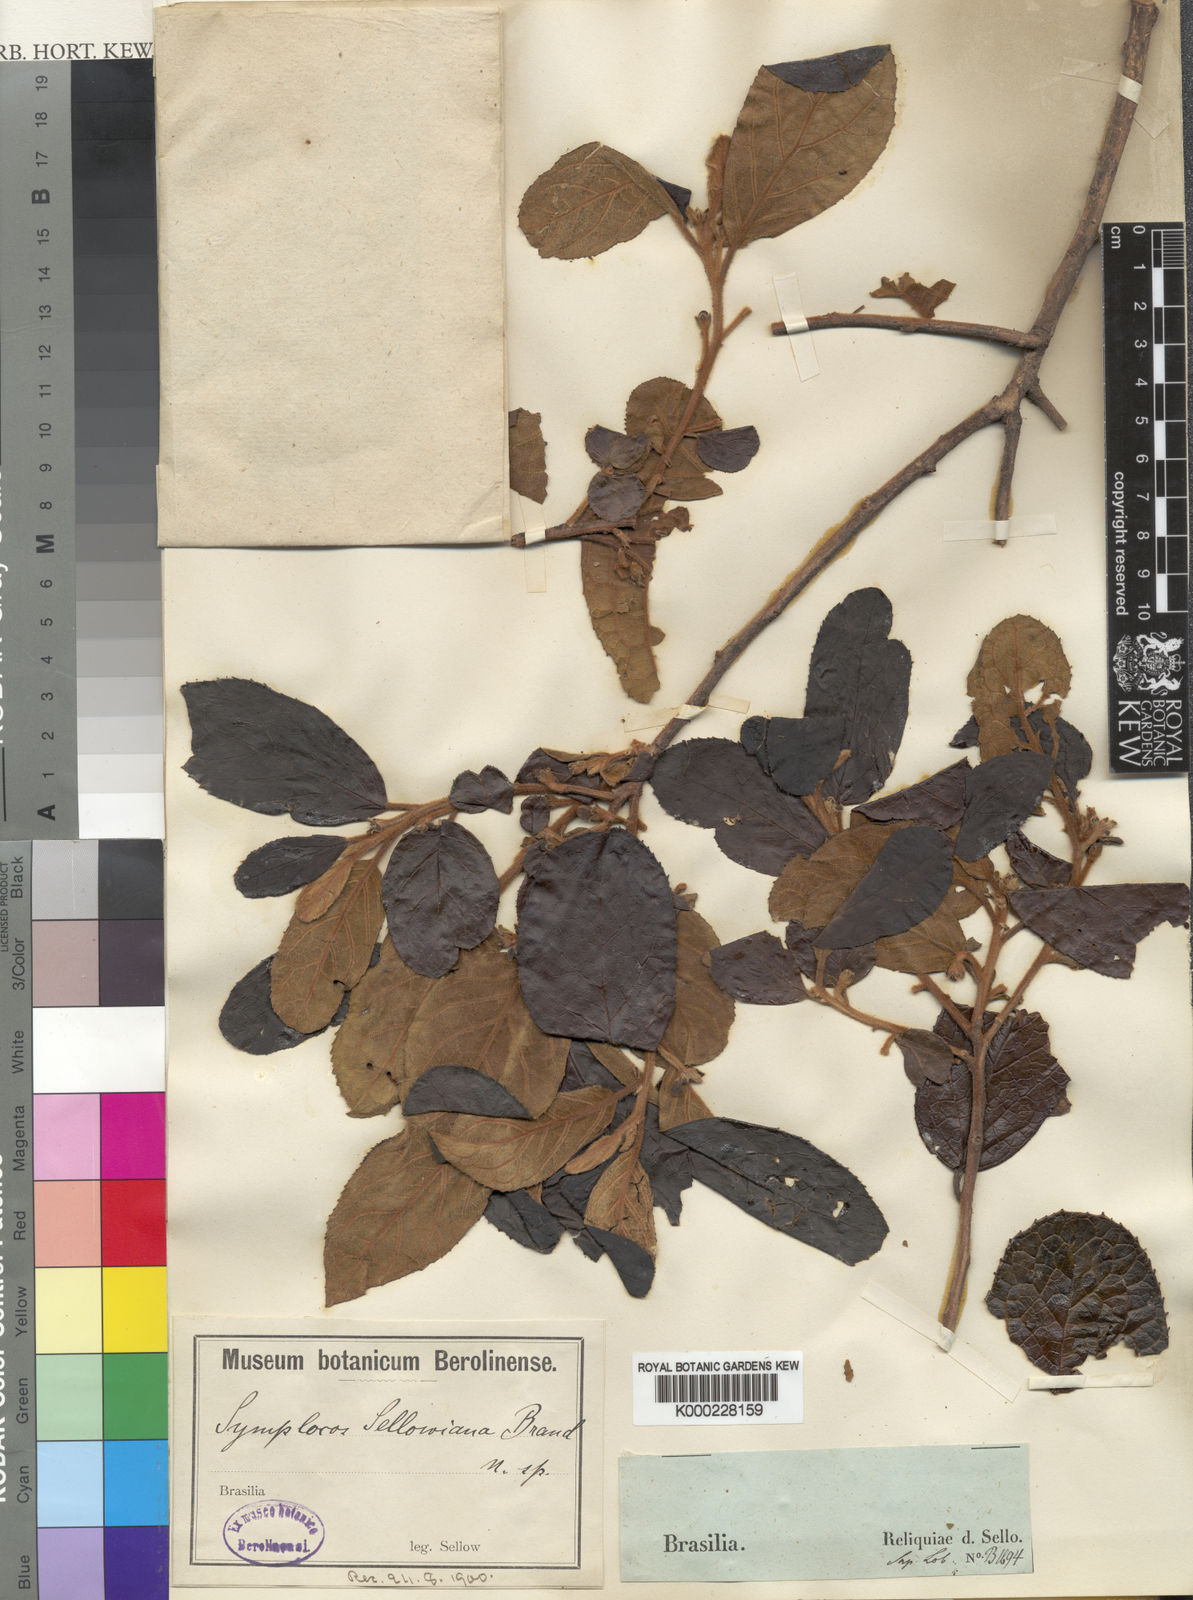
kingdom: Plantae
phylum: Tracheophyta
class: Magnoliopsida
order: Ericales
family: Symplocaceae
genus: Symplocos
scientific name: Symplocos platyphylla
